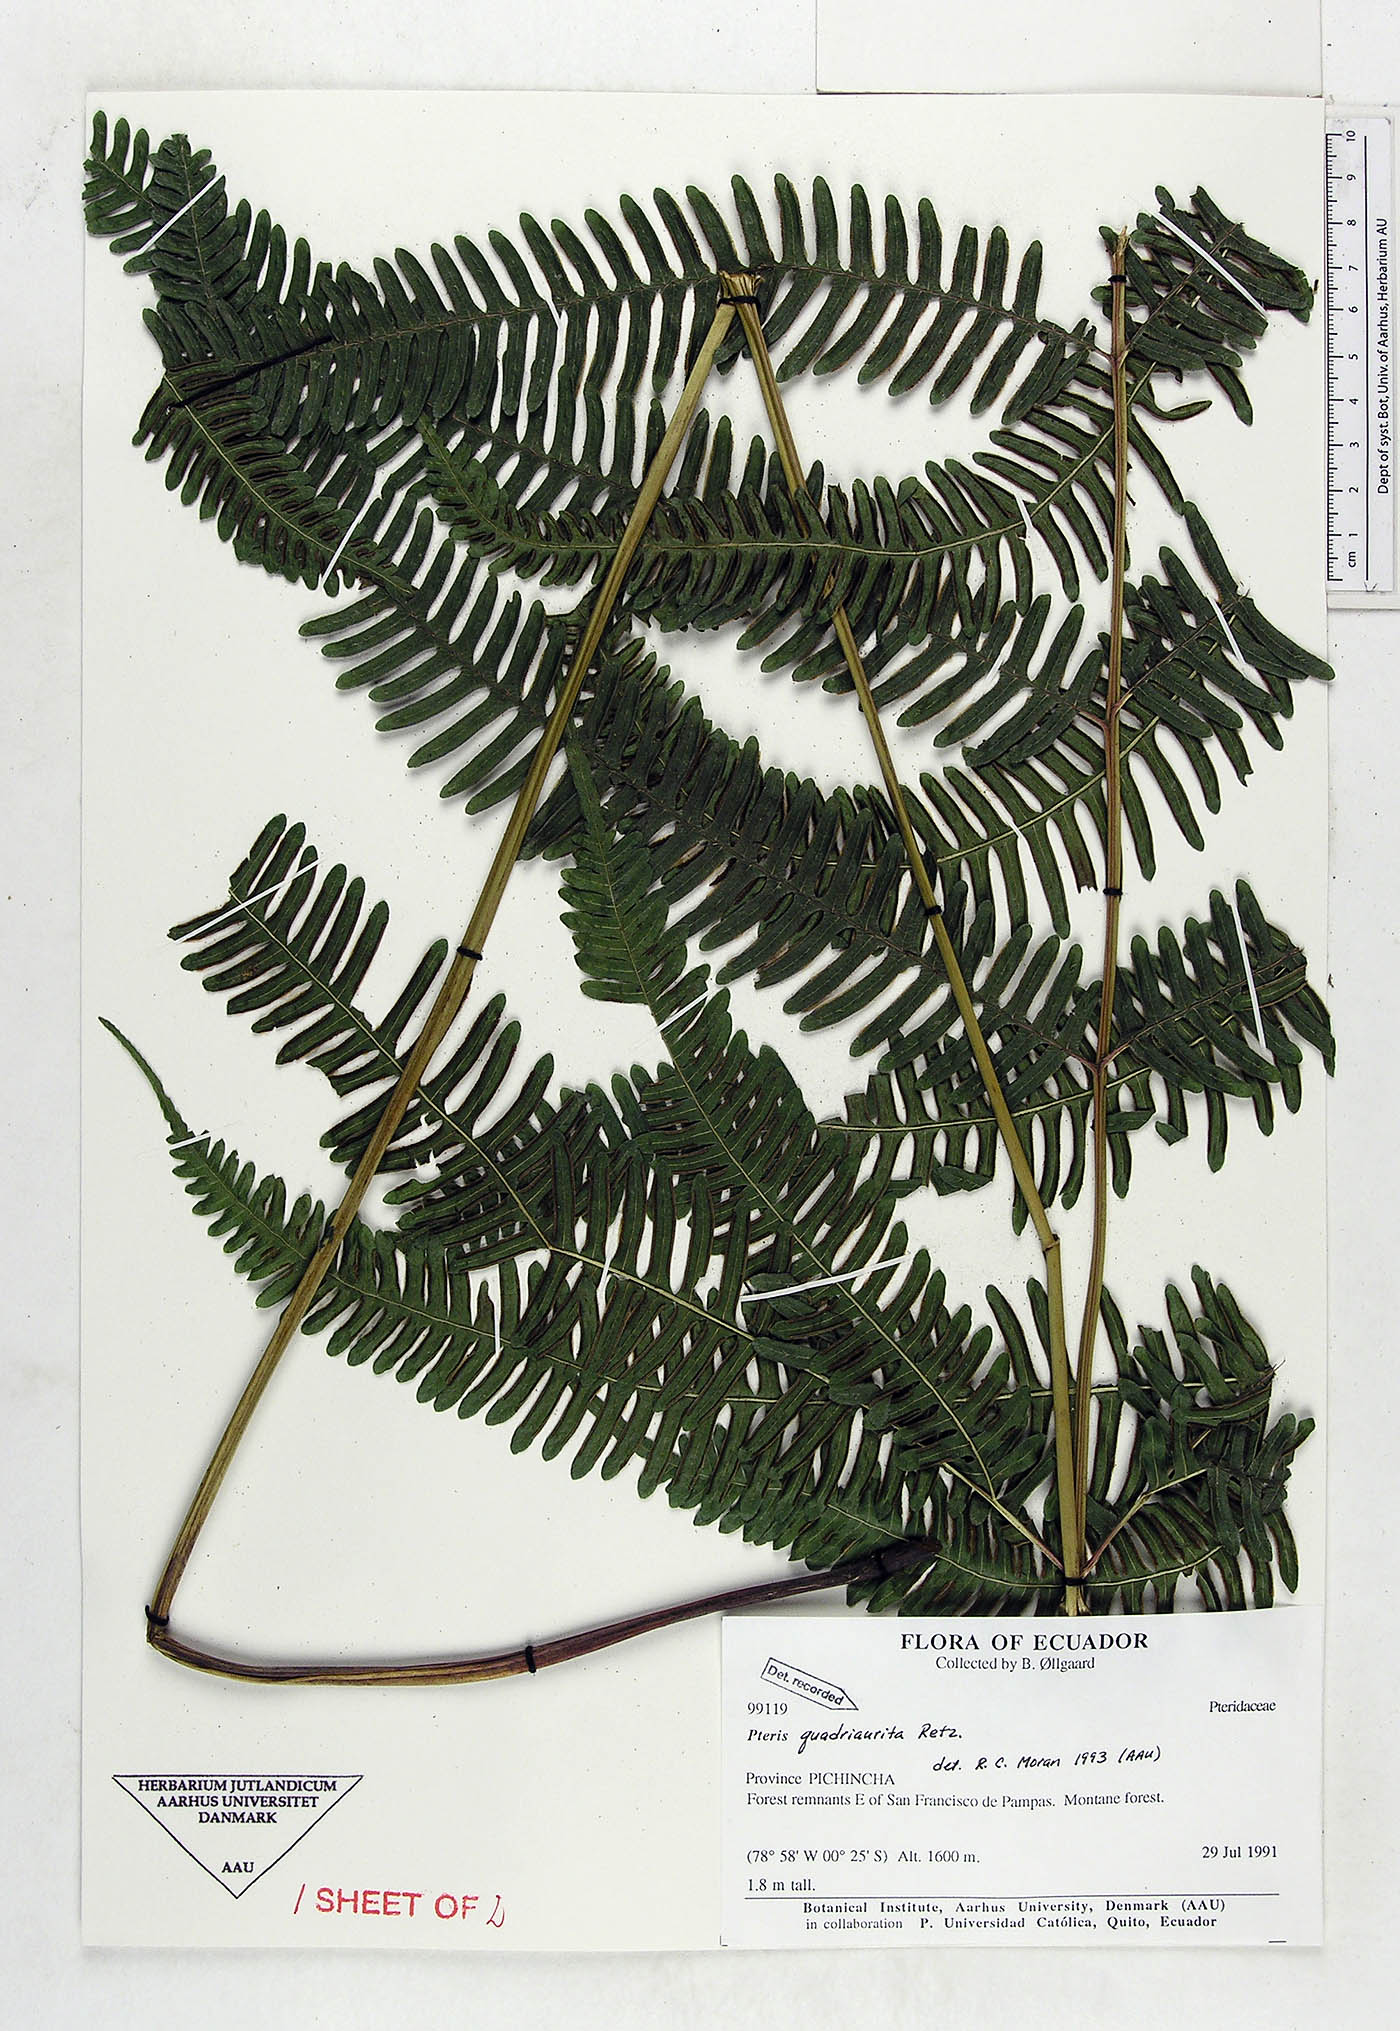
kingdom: Plantae
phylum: Tracheophyta
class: Polypodiopsida
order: Polypodiales
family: Pteridaceae
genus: Pteris
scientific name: Pteris quadriaurita
